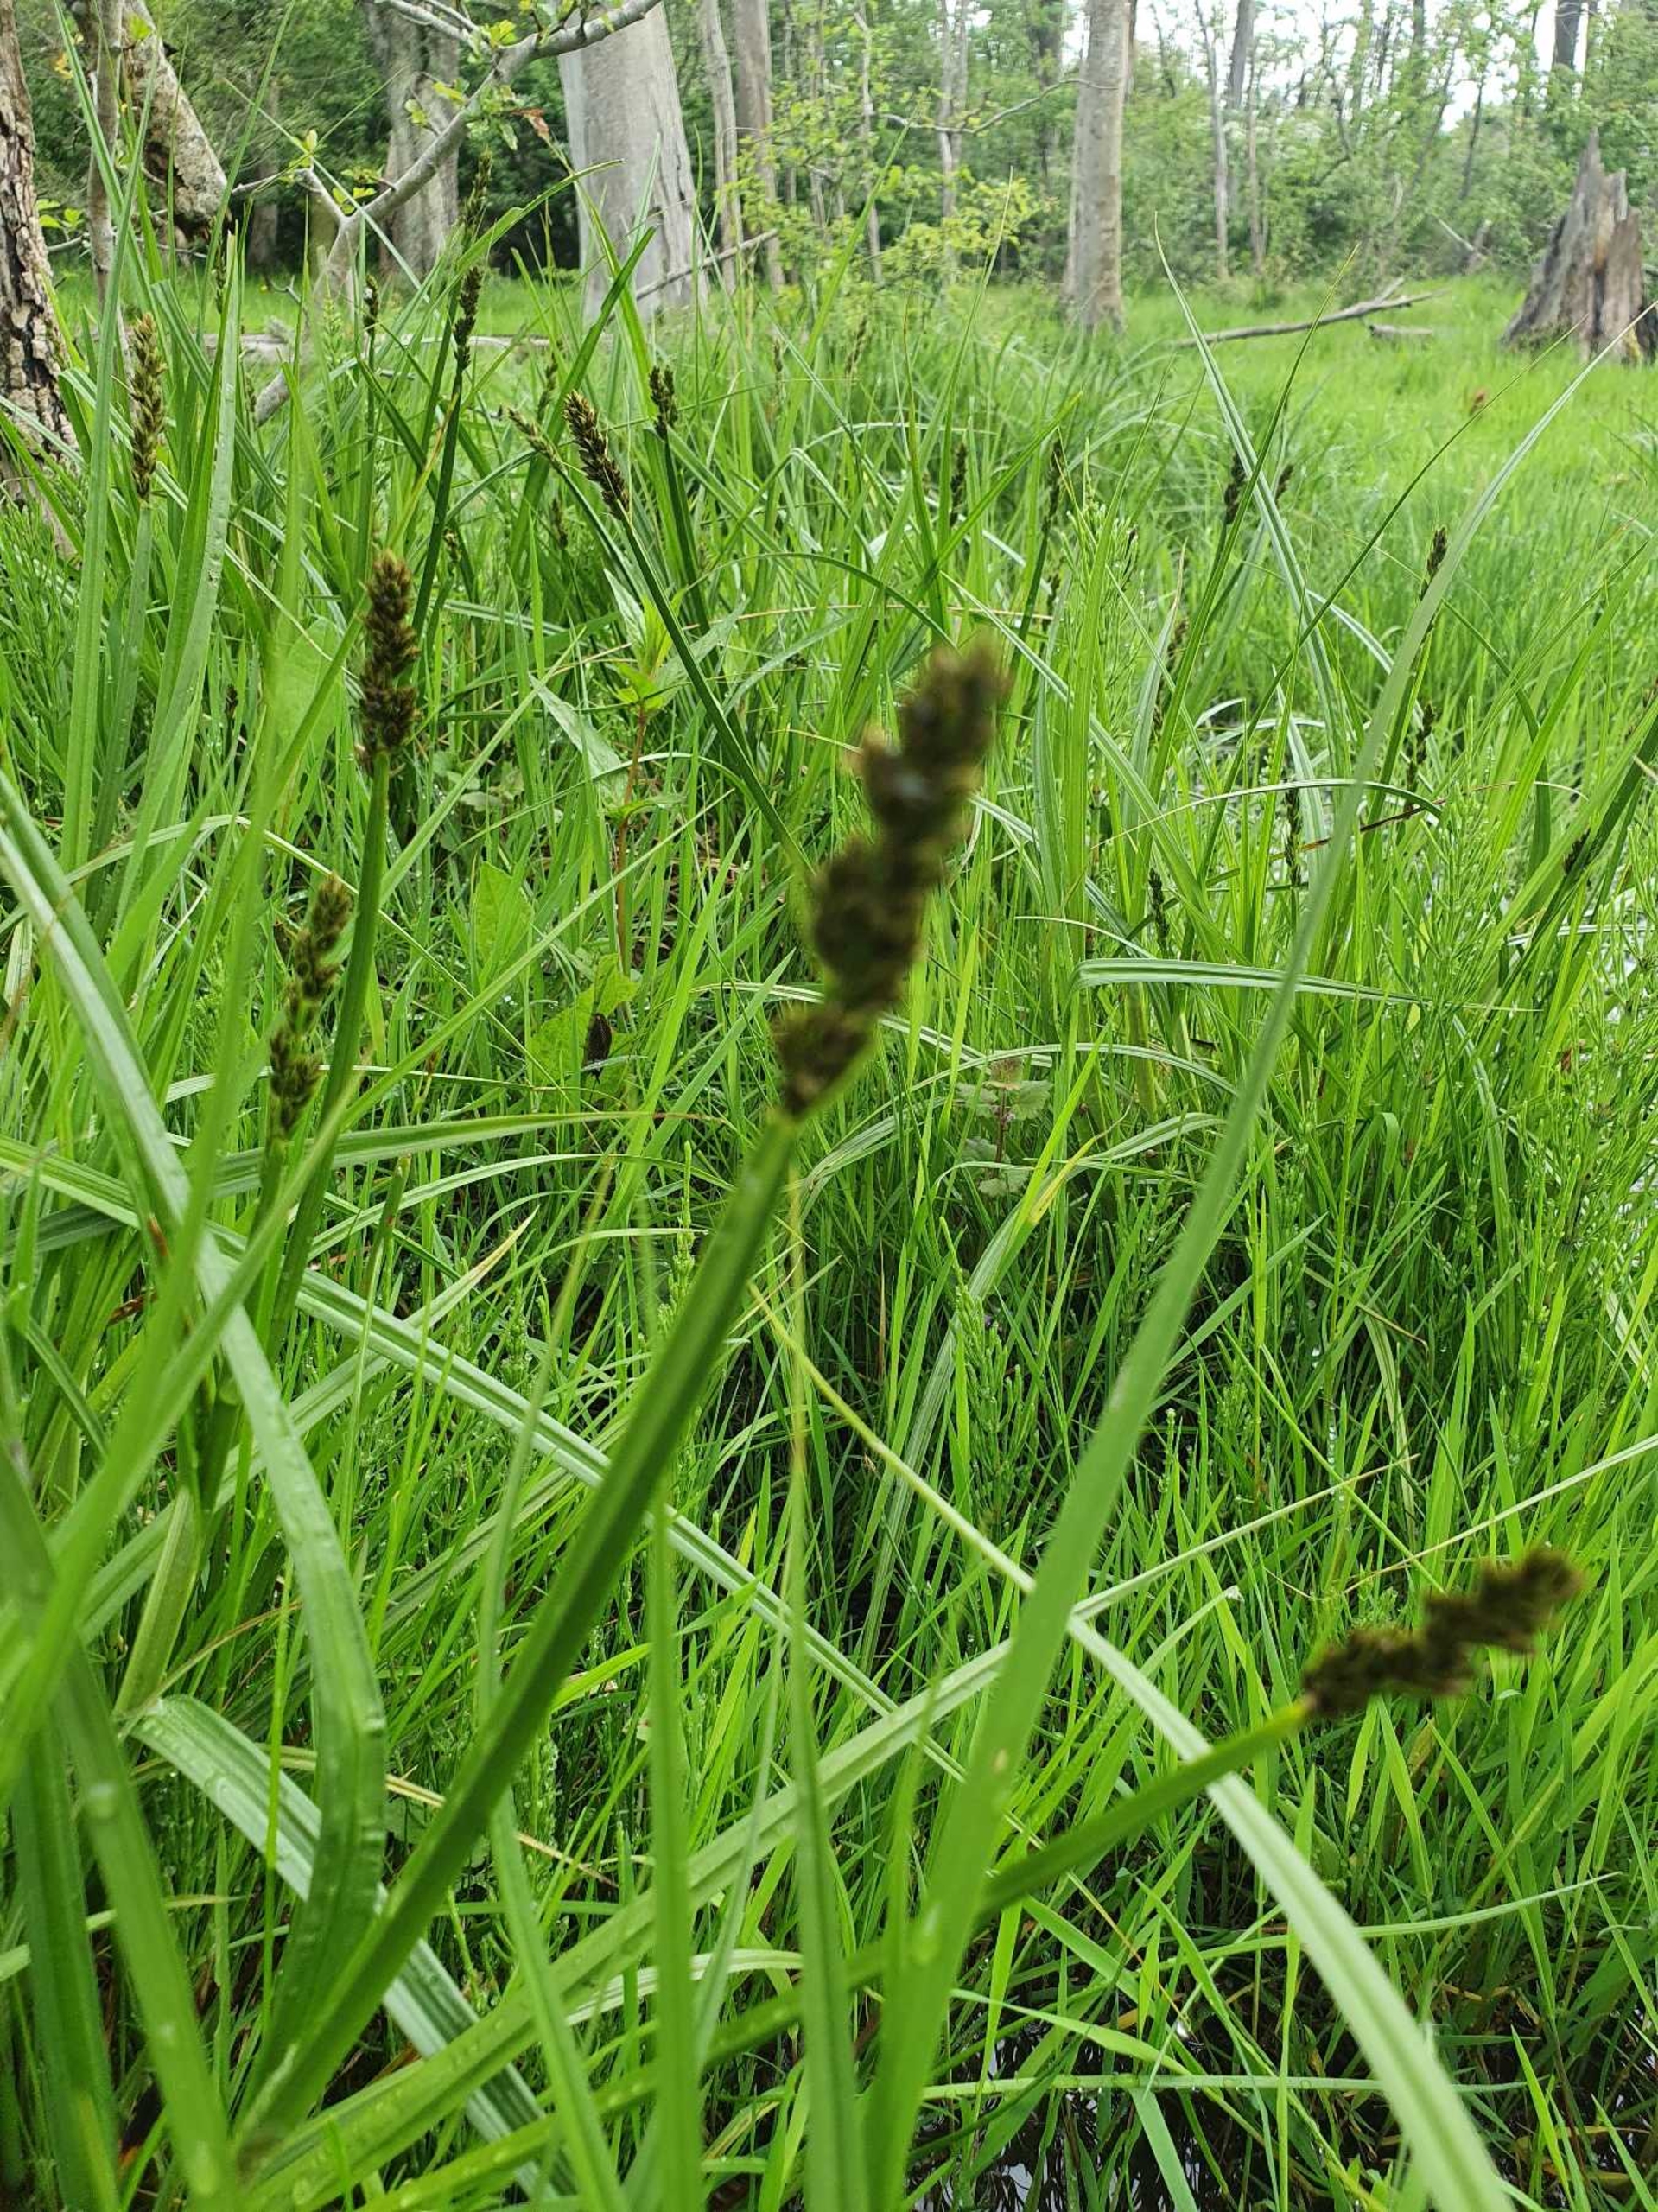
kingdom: Plantae
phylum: Tracheophyta
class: Liliopsida
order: Poales
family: Cyperaceae
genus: Carex
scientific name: Carex vulpina
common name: Ræve-star
